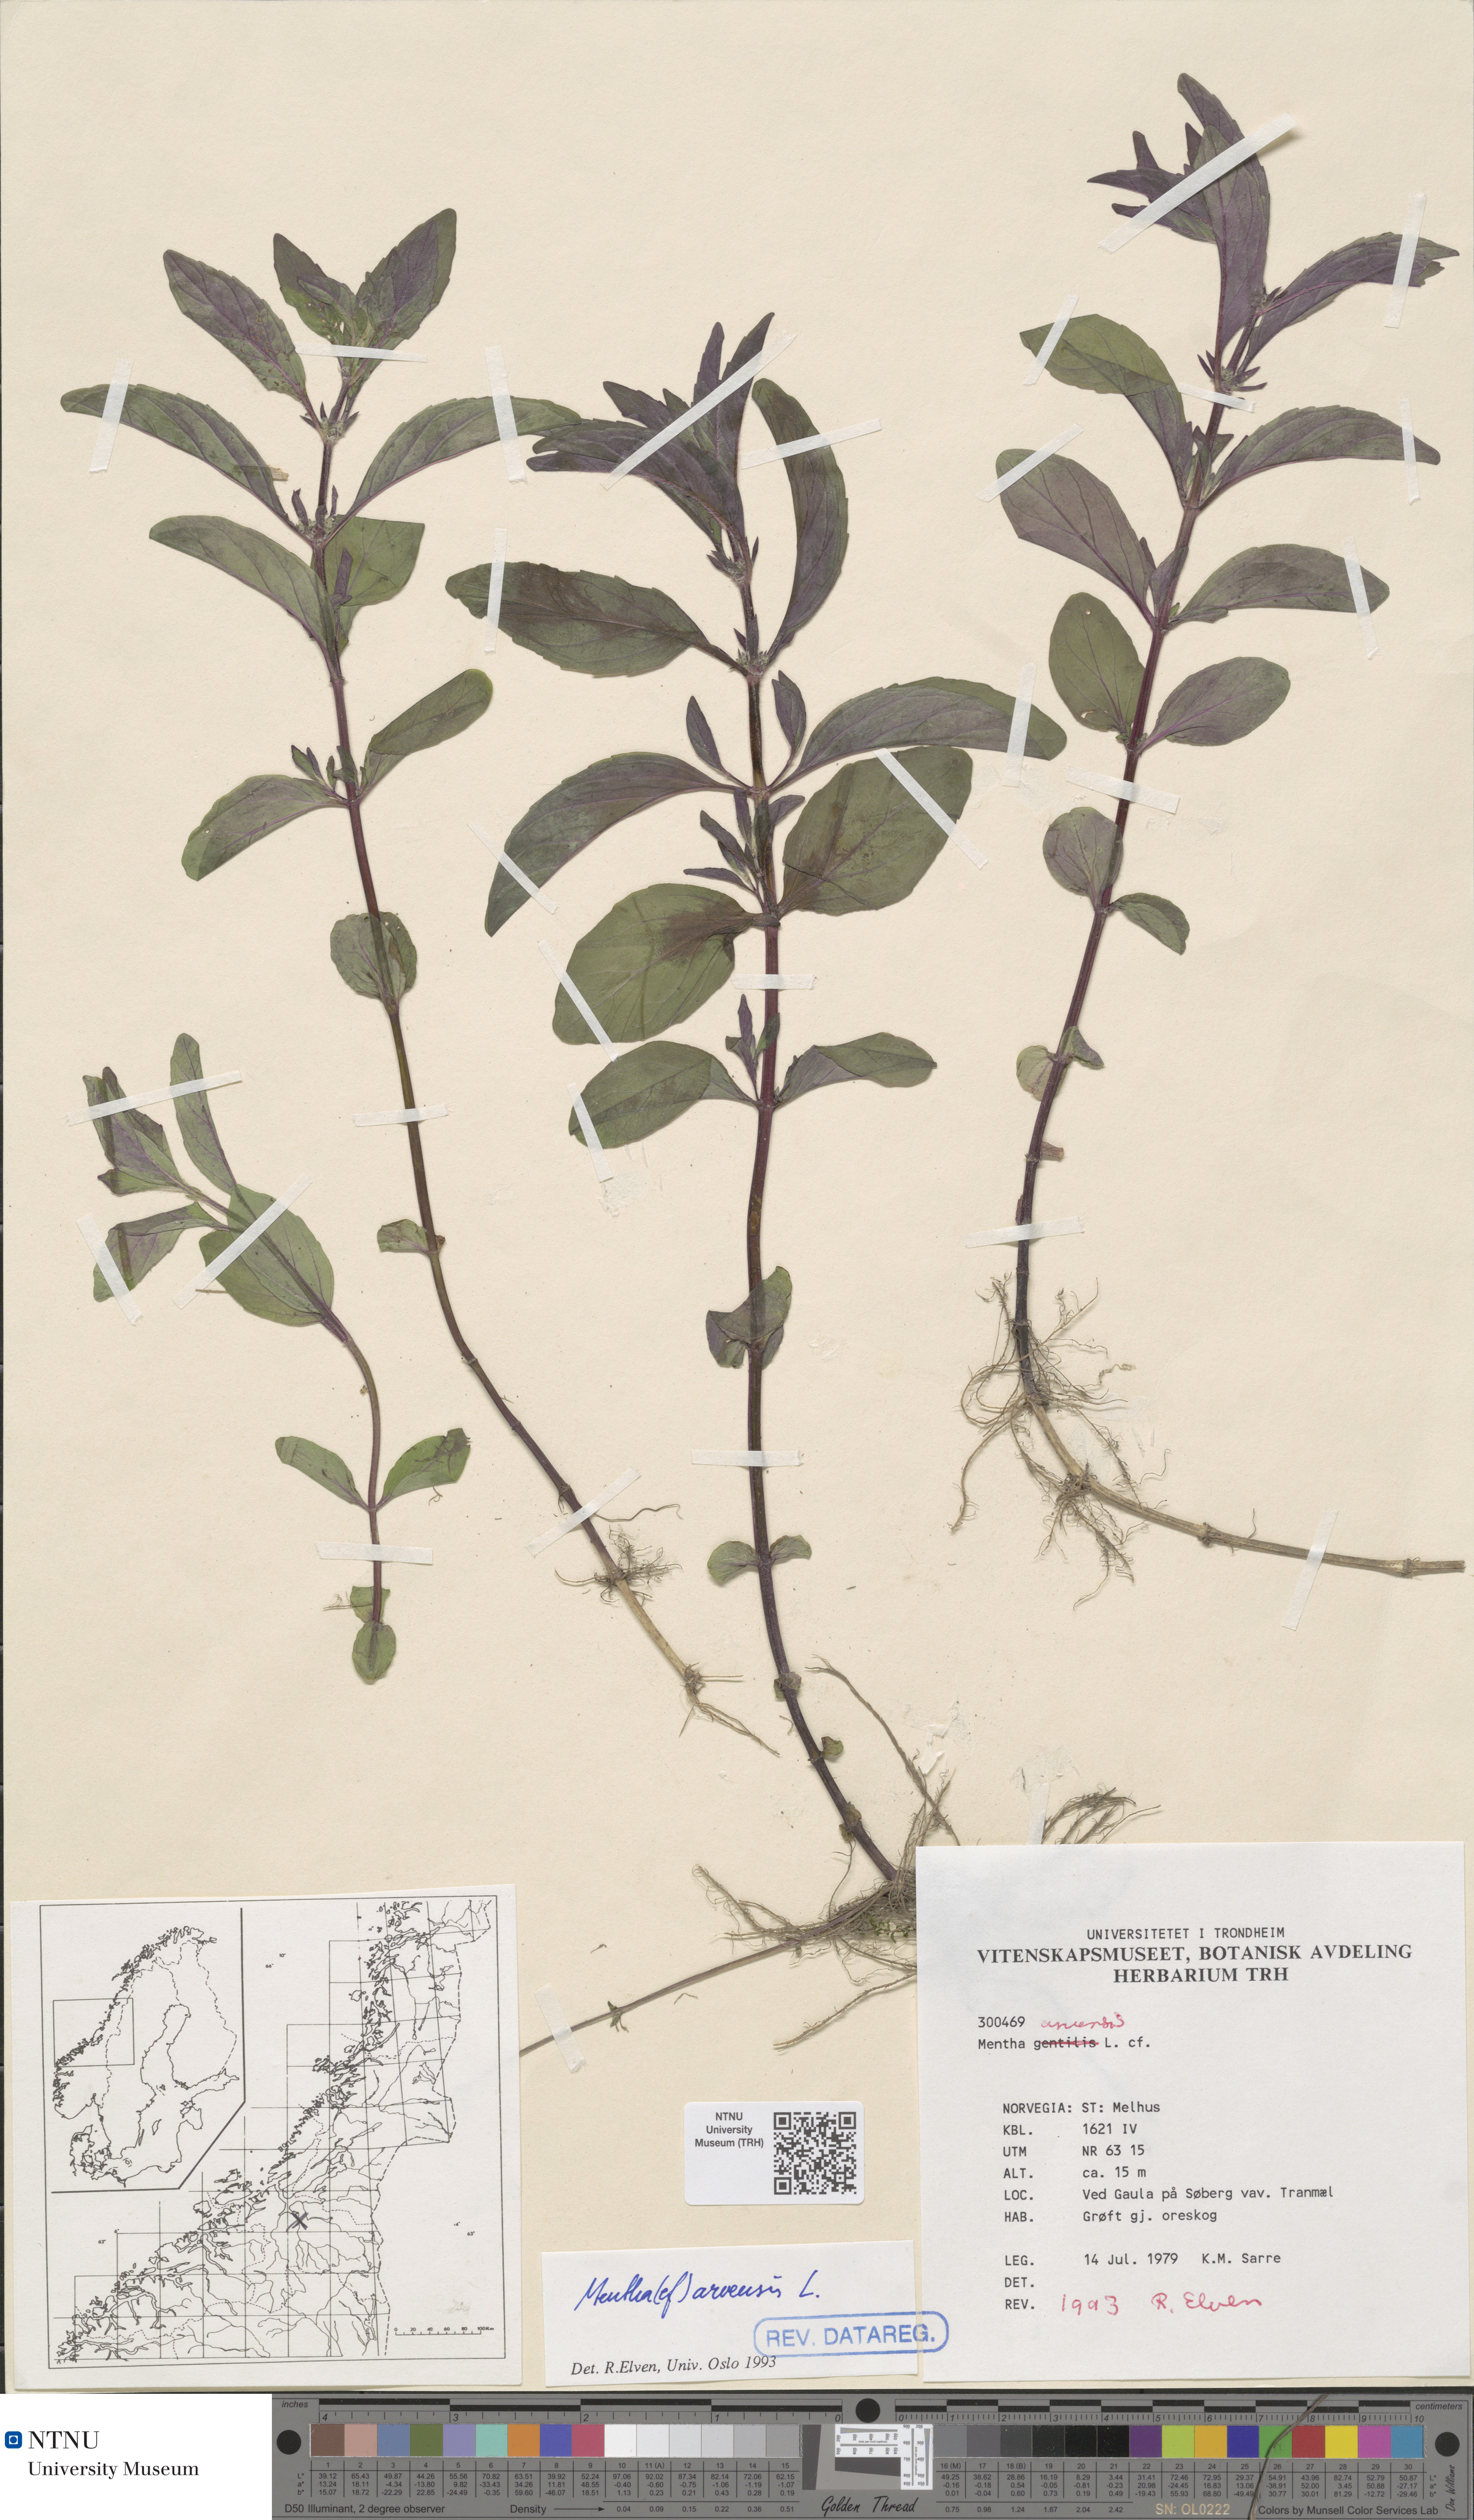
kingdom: Plantae
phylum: Tracheophyta
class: Magnoliopsida
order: Lamiales
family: Lamiaceae
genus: Mentha
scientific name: Mentha arvensis
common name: Corn mint
